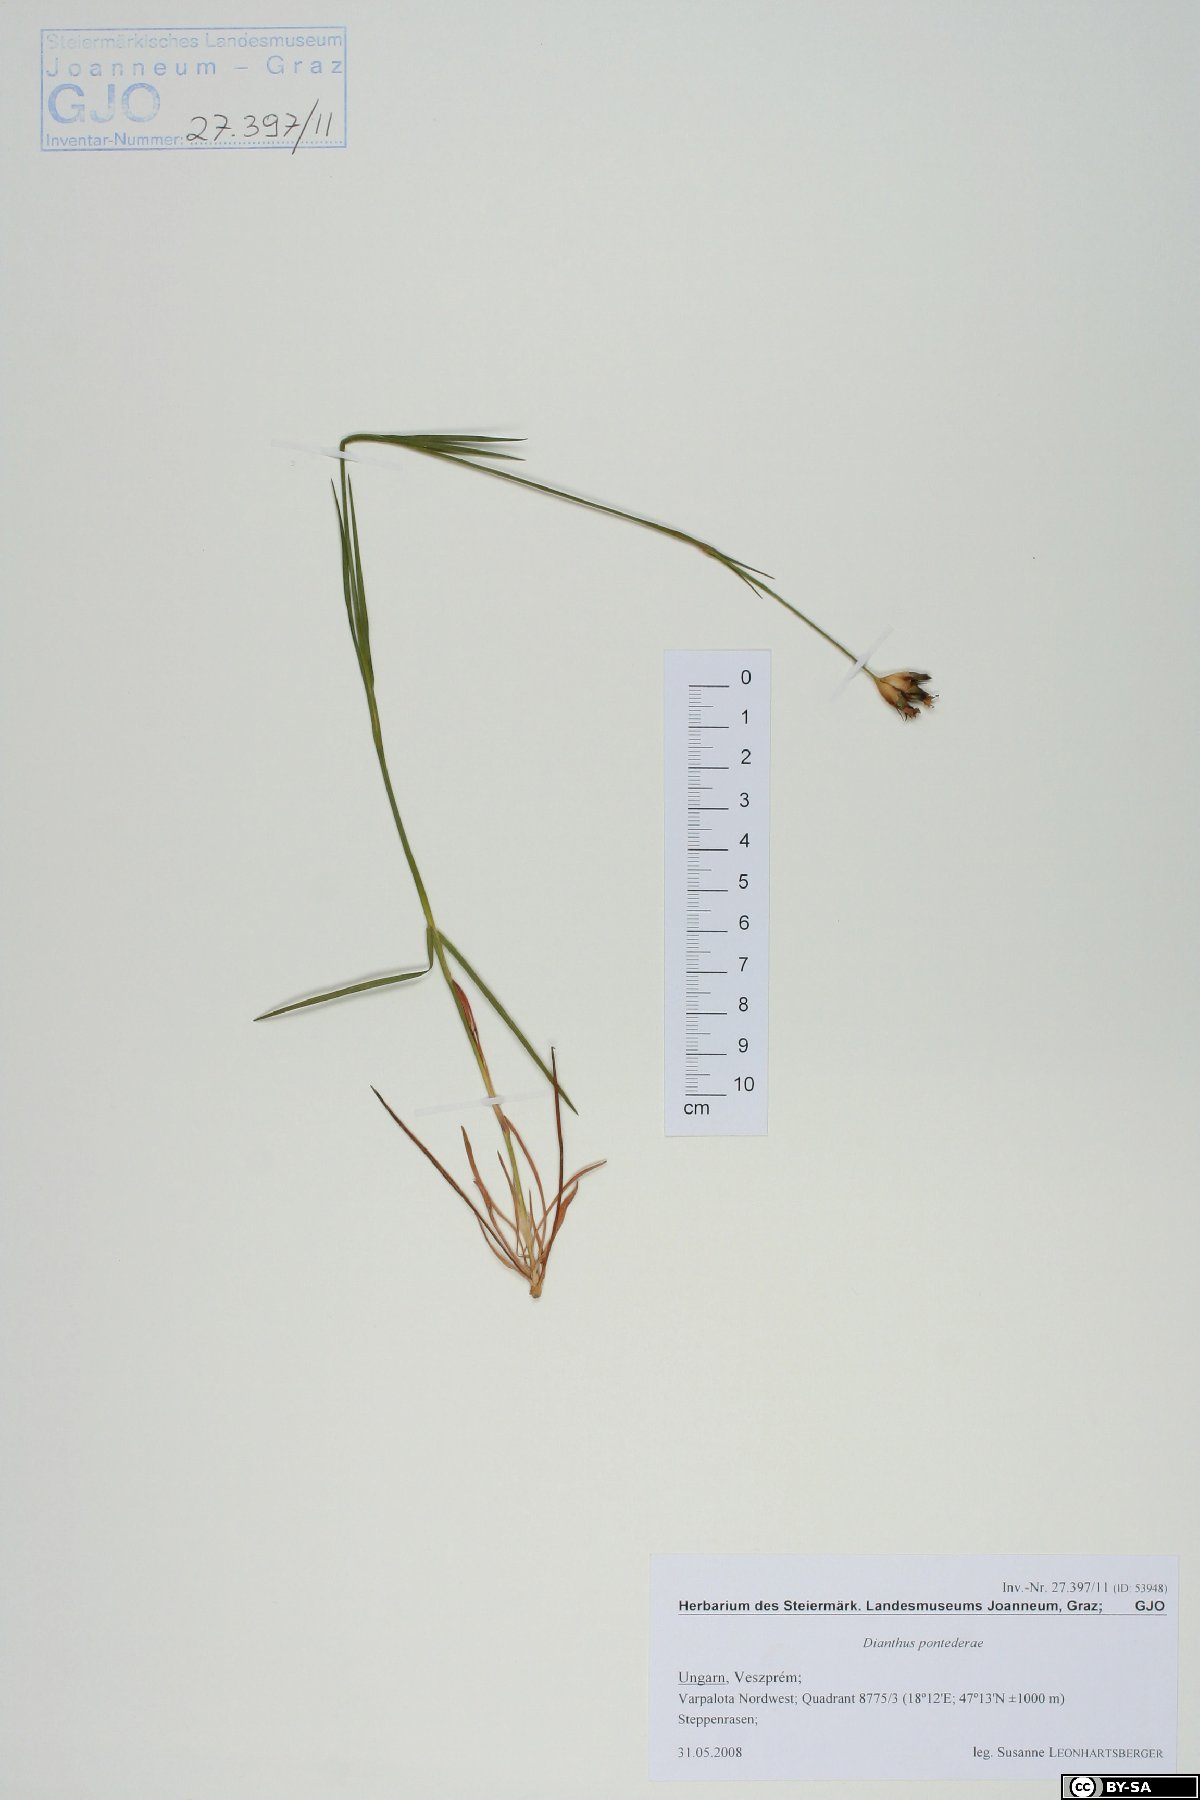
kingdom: Plantae
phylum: Tracheophyta
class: Magnoliopsida
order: Caryophyllales
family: Caryophyllaceae
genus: Dianthus
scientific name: Dianthus pontederae
